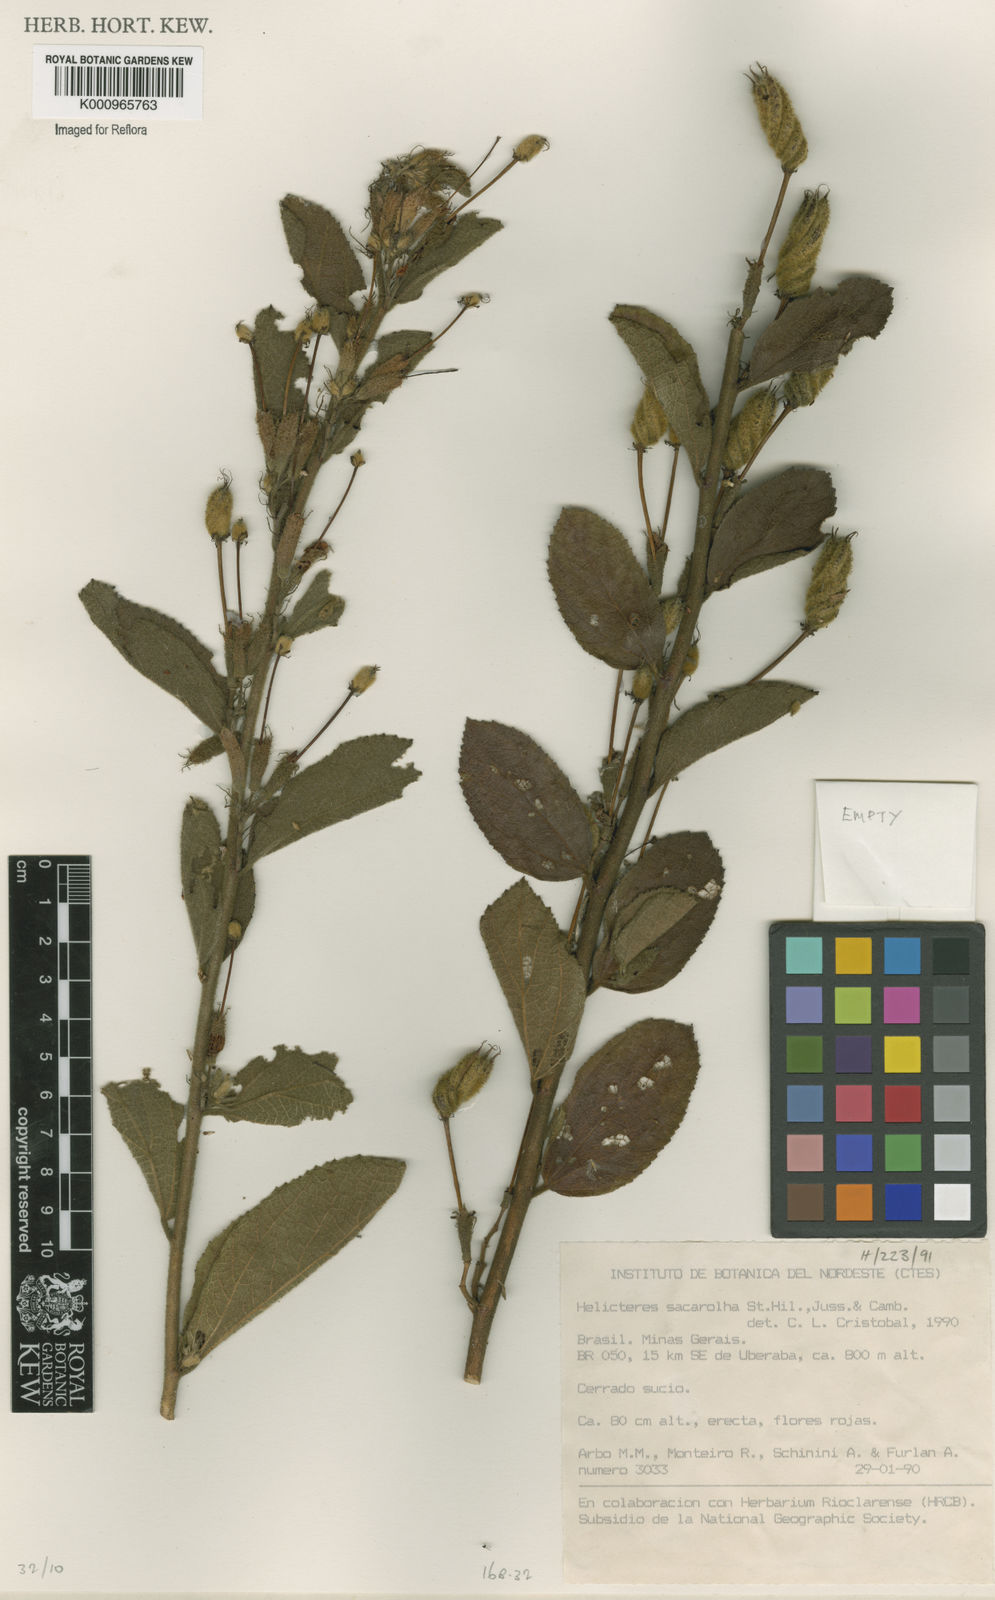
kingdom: Plantae
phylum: Tracheophyta
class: Magnoliopsida
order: Malvales
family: Malvaceae
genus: Helicteres
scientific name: Helicteres
